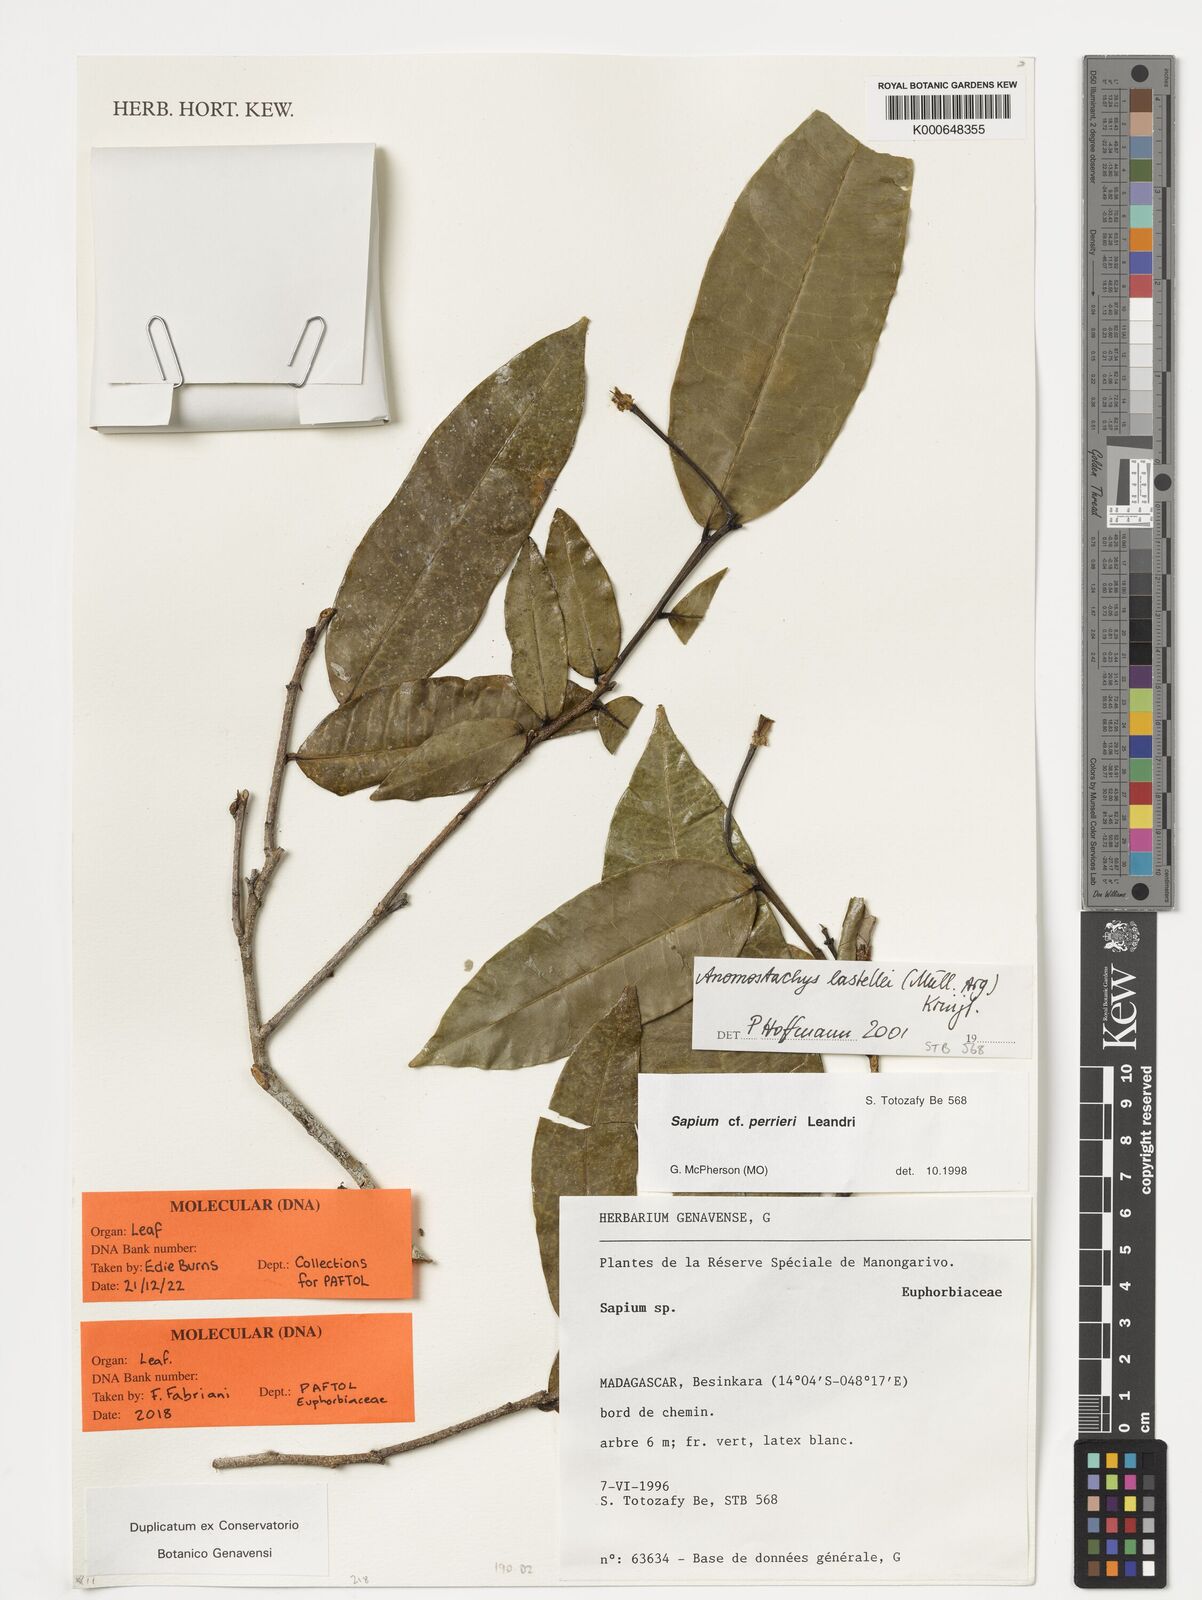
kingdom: Plantae
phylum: Tracheophyta
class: Magnoliopsida
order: Malpighiales
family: Euphorbiaceae
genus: Anomostachys
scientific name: Anomostachys lastellei
